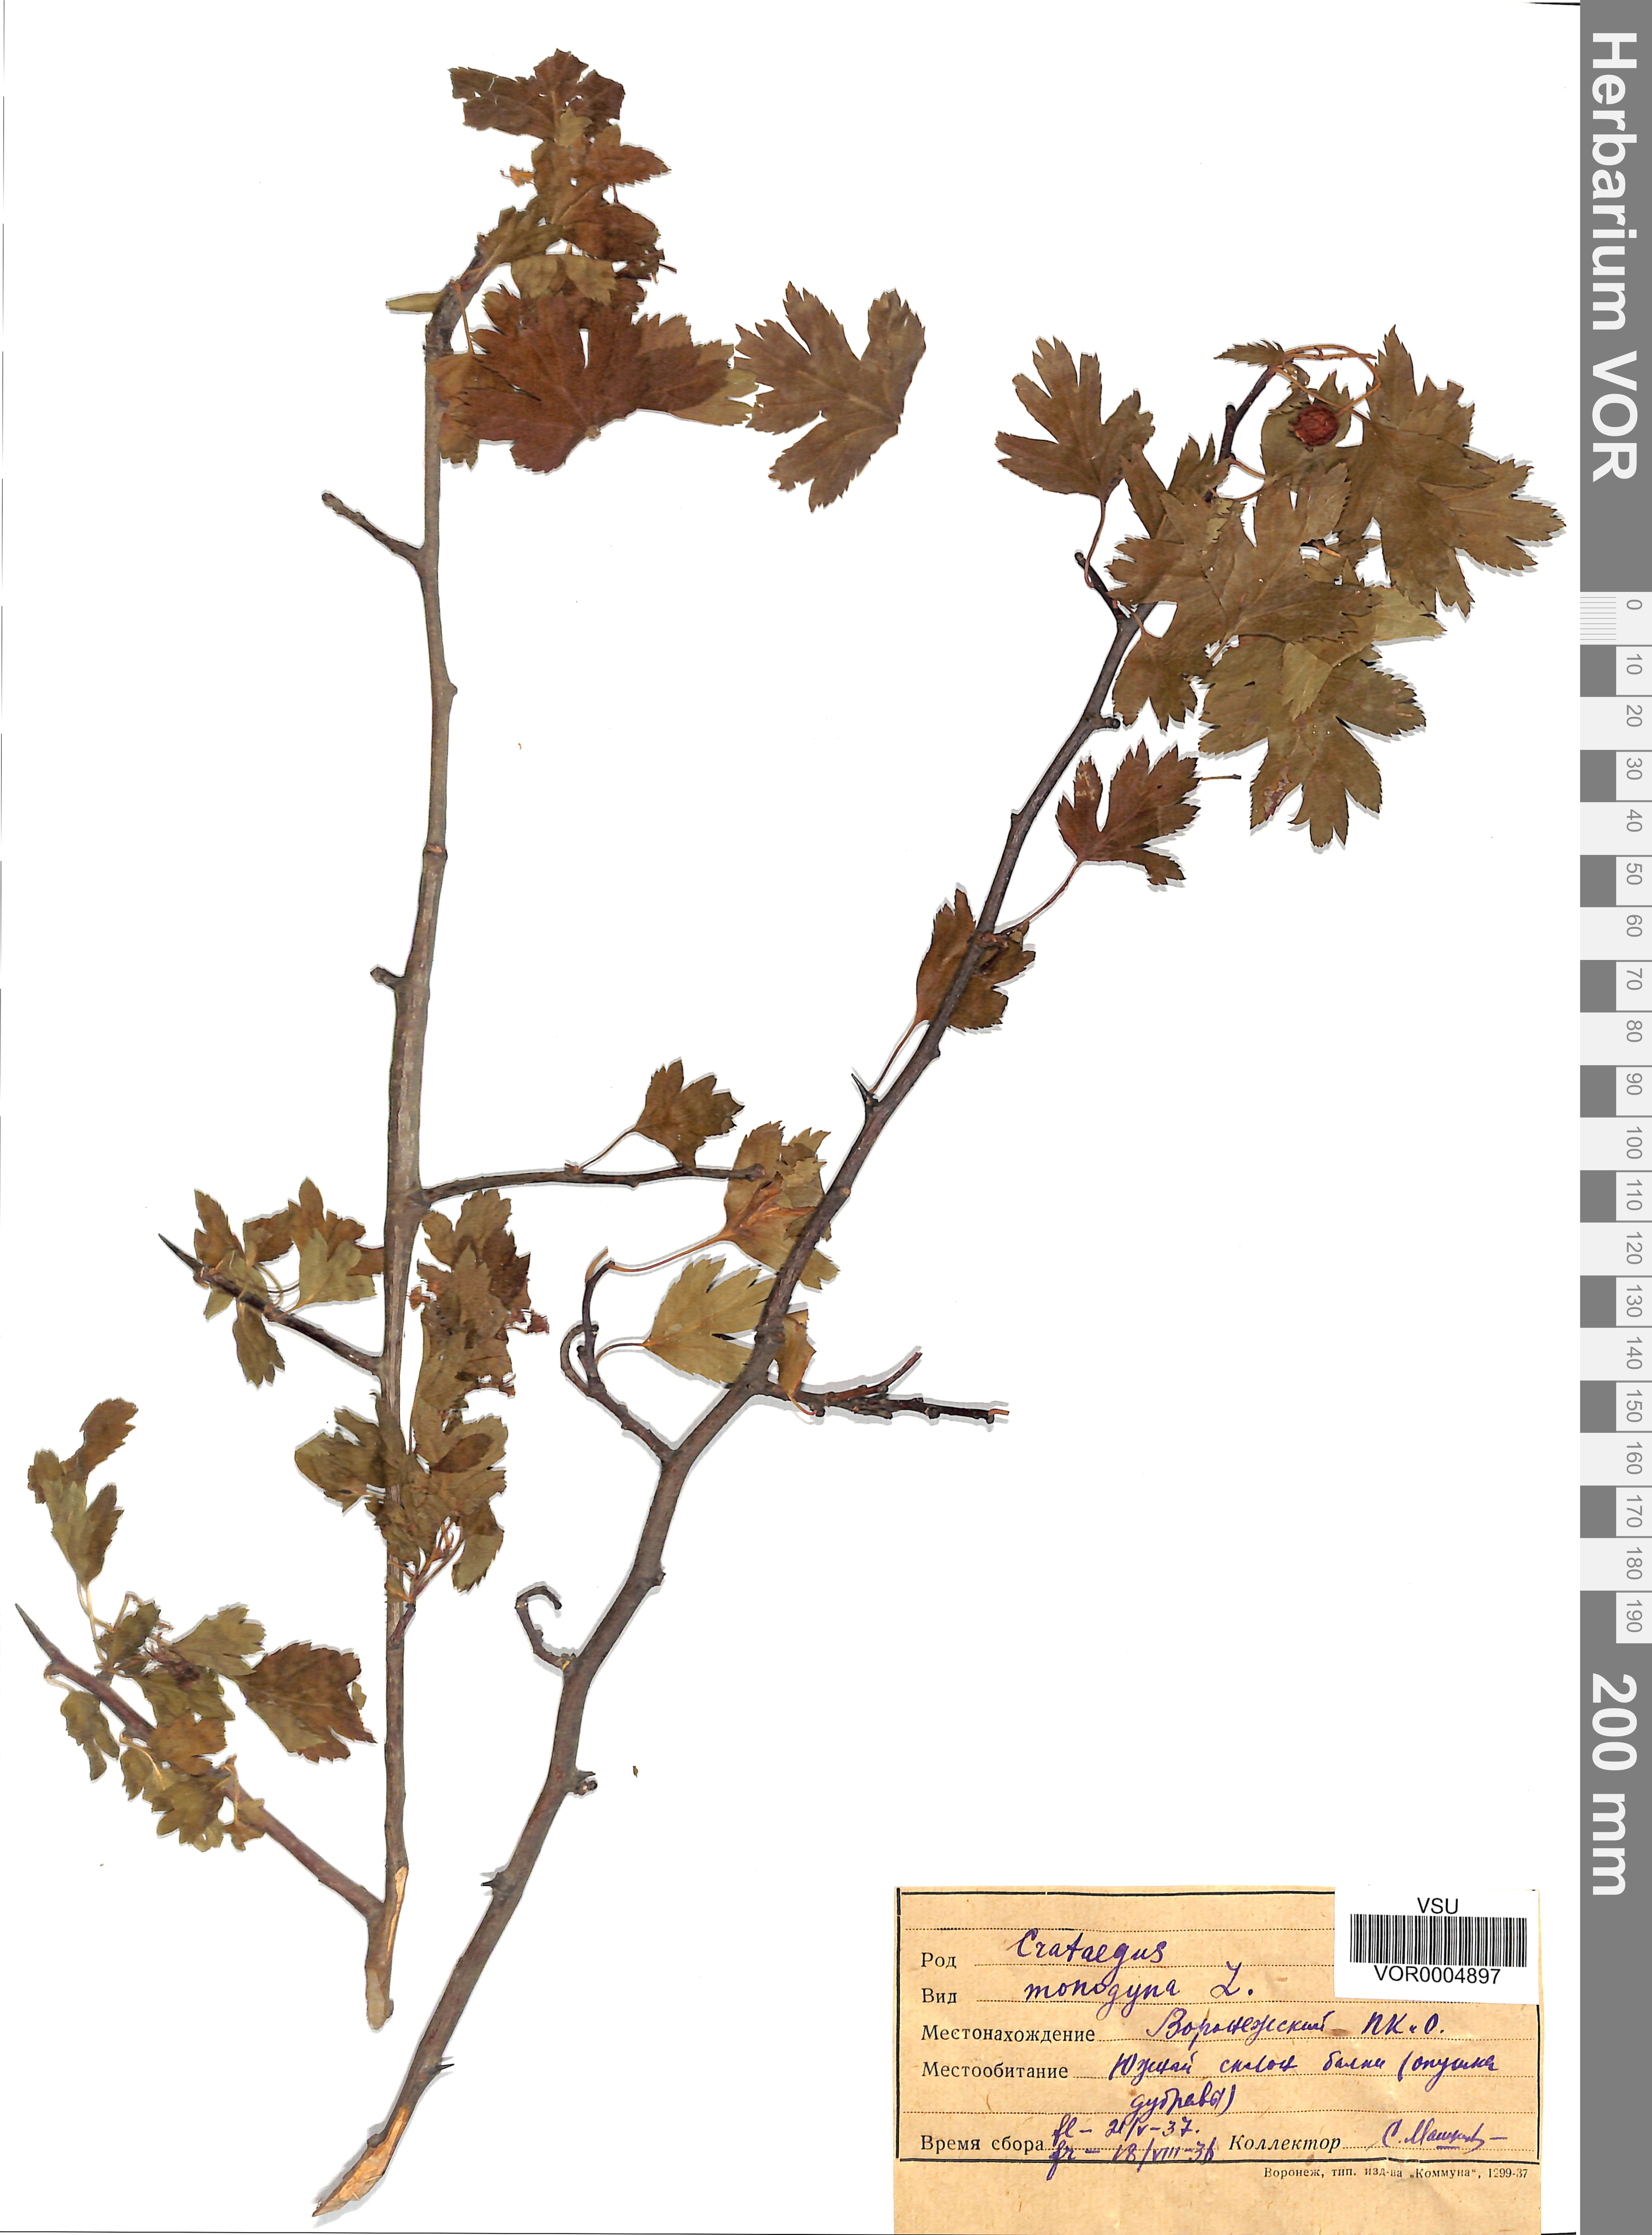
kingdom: Plantae
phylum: Tracheophyta
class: Magnoliopsida
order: Rosales
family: Rosaceae
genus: Crataegus
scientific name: Crataegus monogyna
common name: Hawthorn
